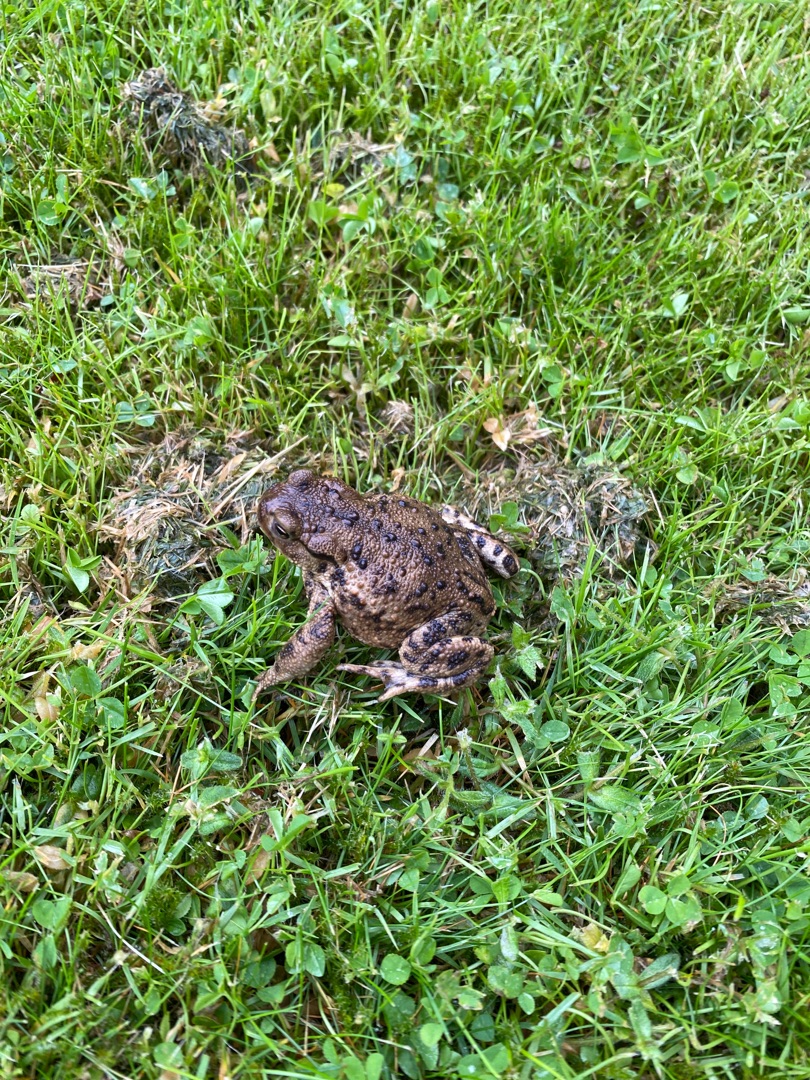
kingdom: Animalia
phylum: Chordata
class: Amphibia
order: Anura
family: Bufonidae
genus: Bufo
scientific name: Bufo bufo
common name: Skrubtudse
